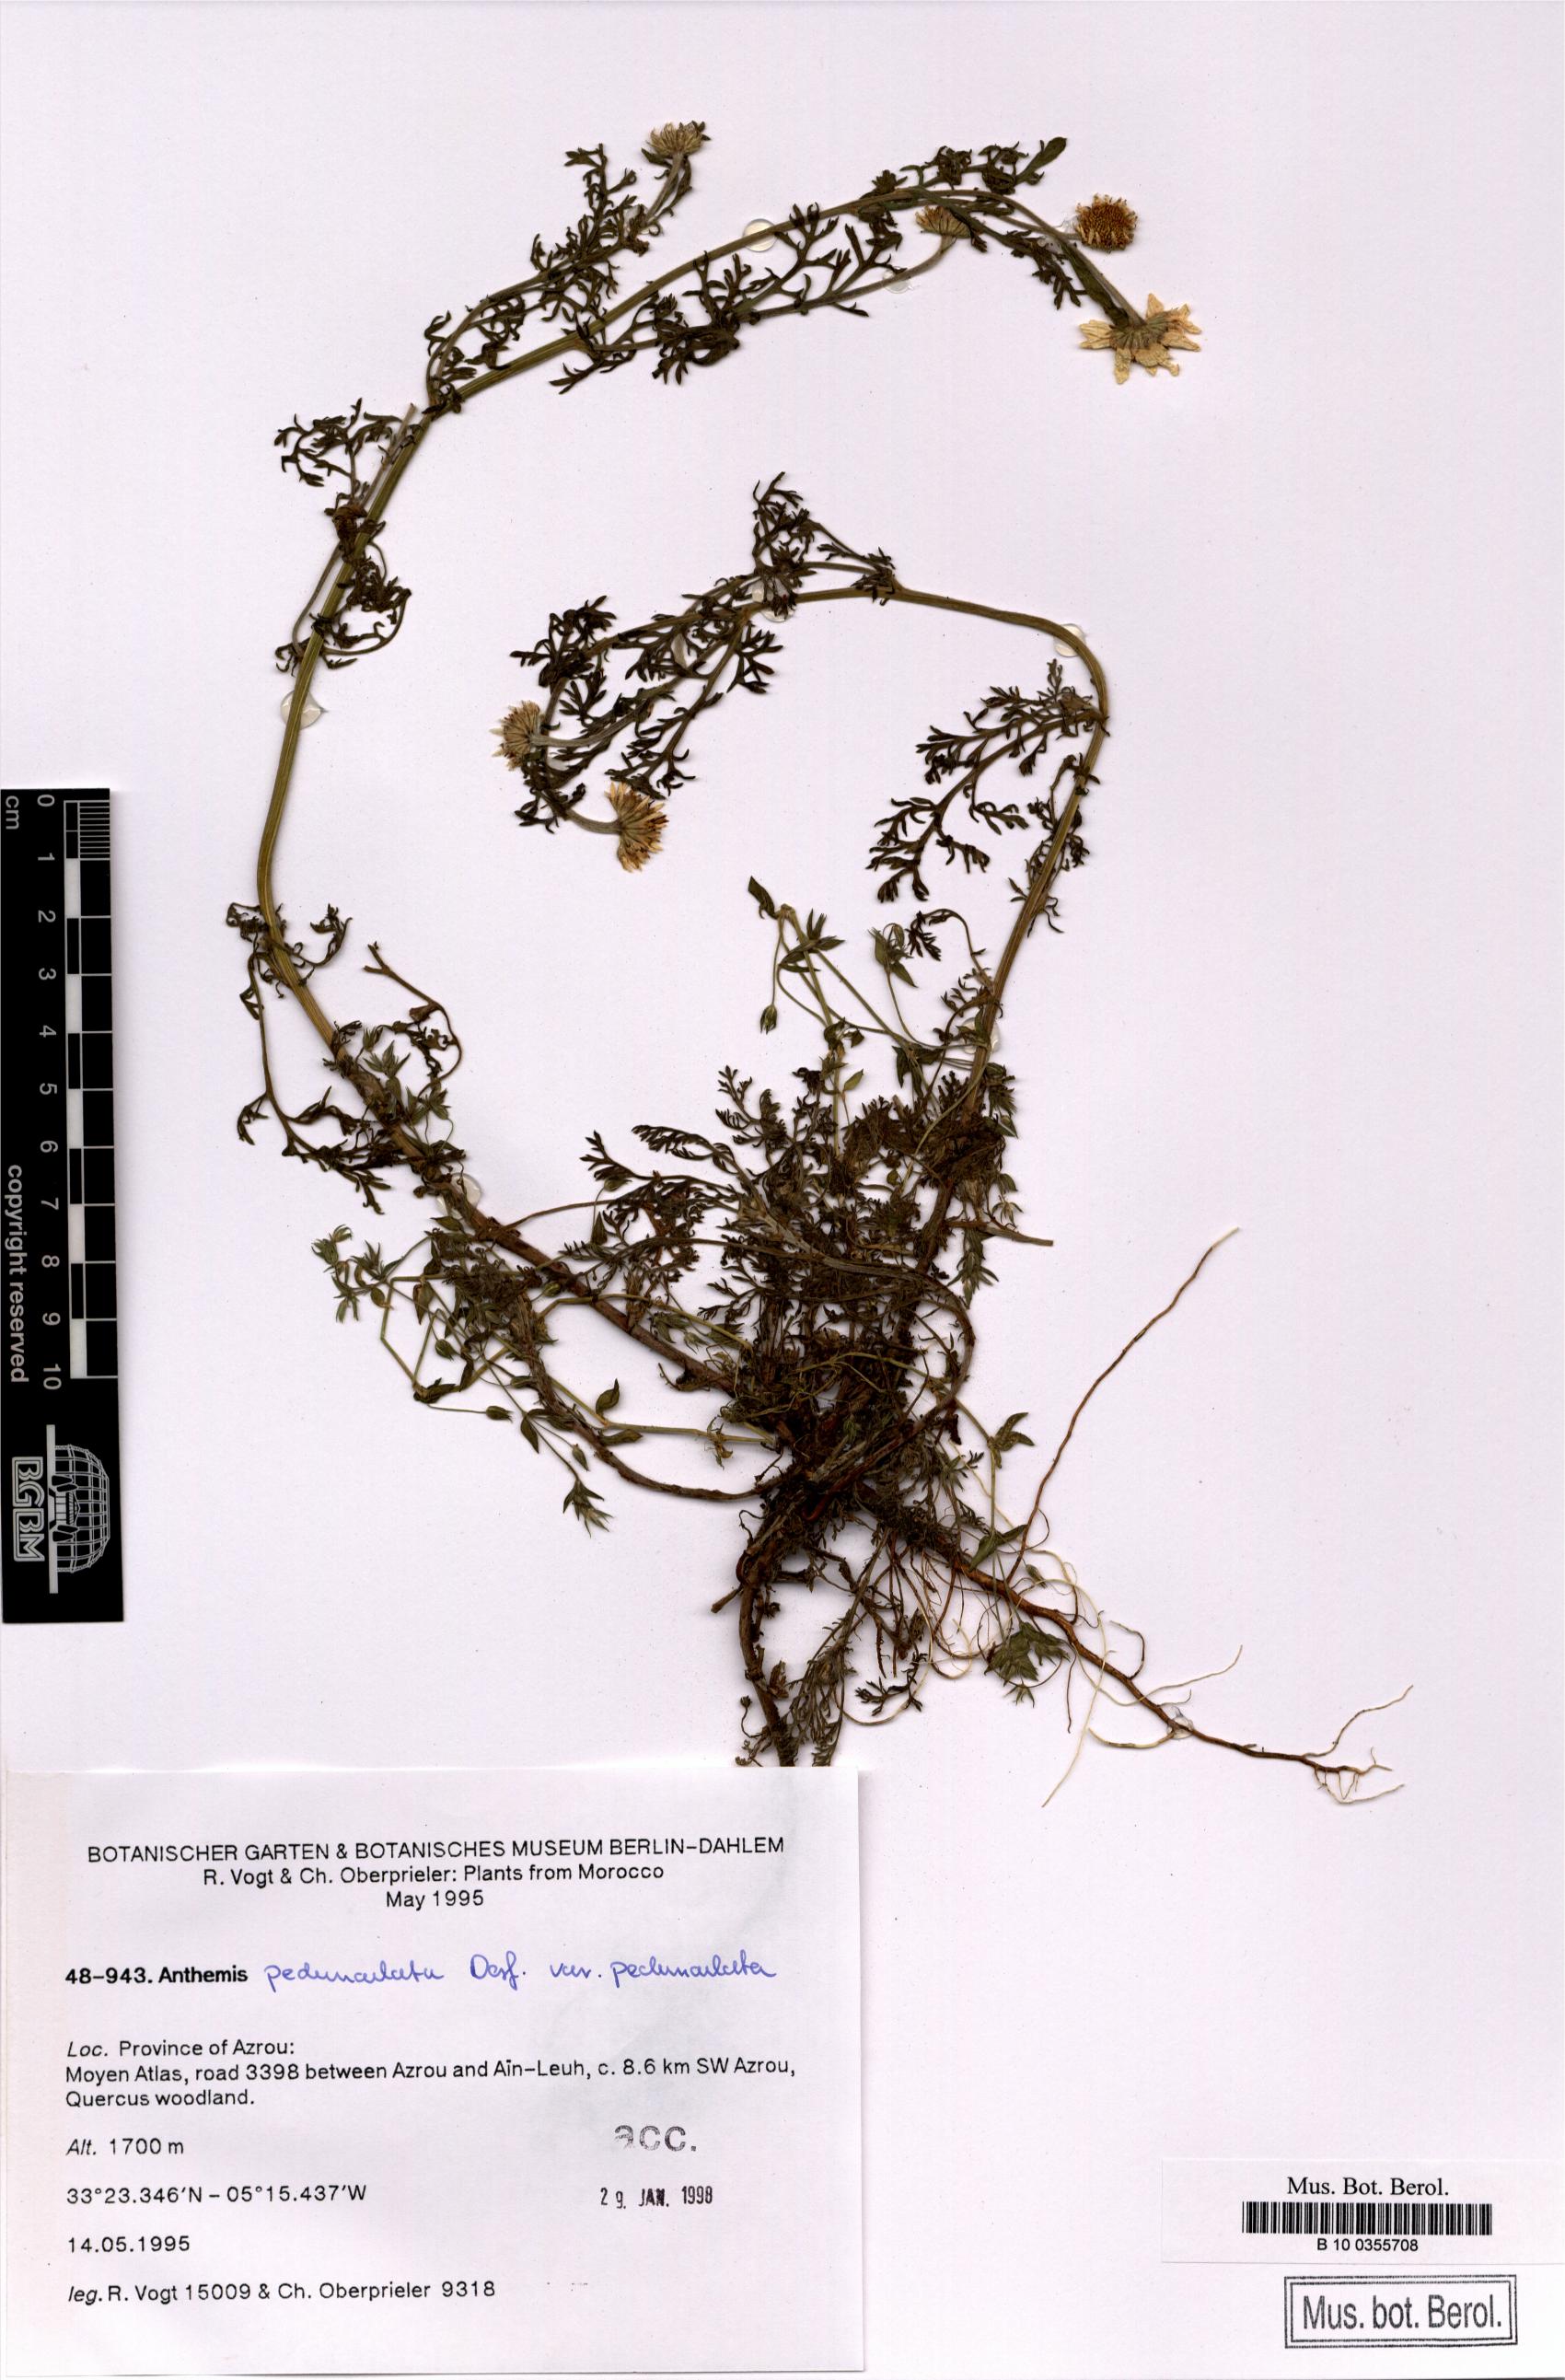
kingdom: Plantae
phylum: Tracheophyta
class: Magnoliopsida
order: Asterales
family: Asteraceae
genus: Anthemis
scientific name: Anthemis pedunculata
